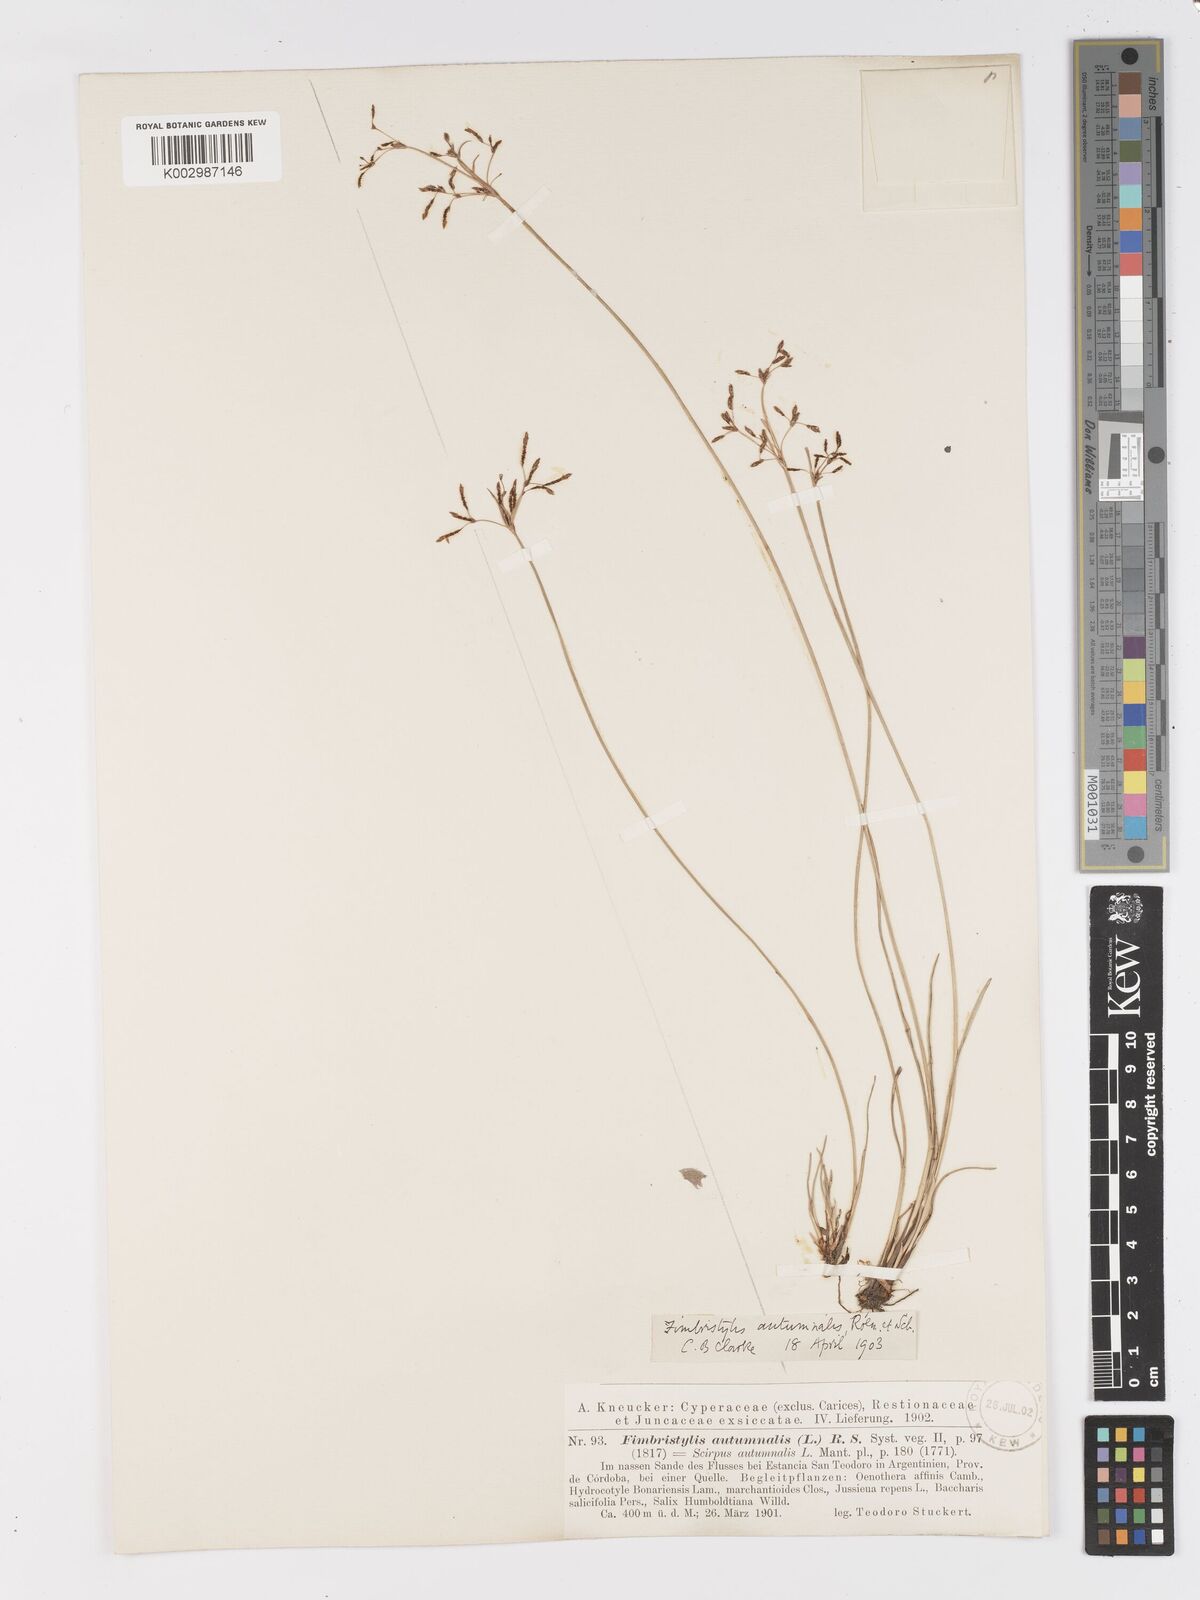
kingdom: Plantae
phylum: Tracheophyta
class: Liliopsida
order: Poales
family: Cyperaceae
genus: Fimbristylis
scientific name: Fimbristylis autumnalis
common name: Slender fimbristylis
